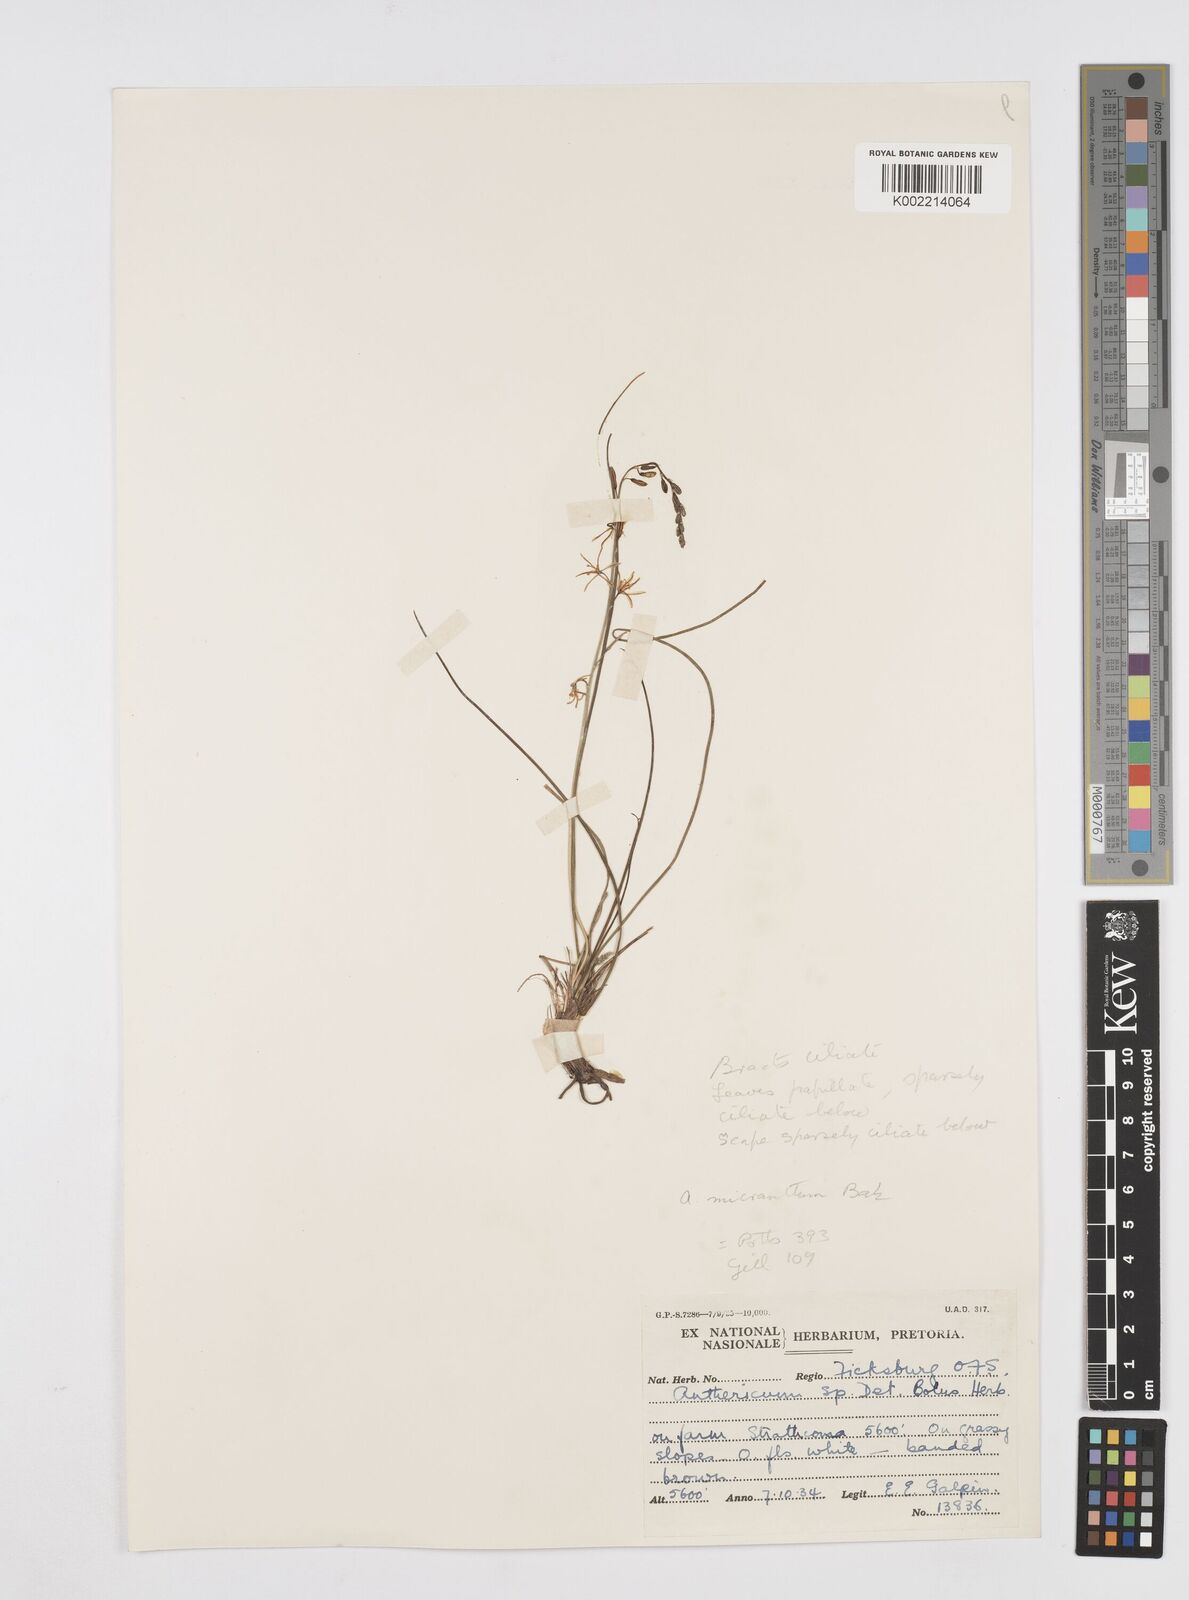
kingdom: Plantae
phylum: Tracheophyta
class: Liliopsida
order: Asparagales
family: Asphodelaceae
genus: Trachyandra
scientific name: Trachyandra
